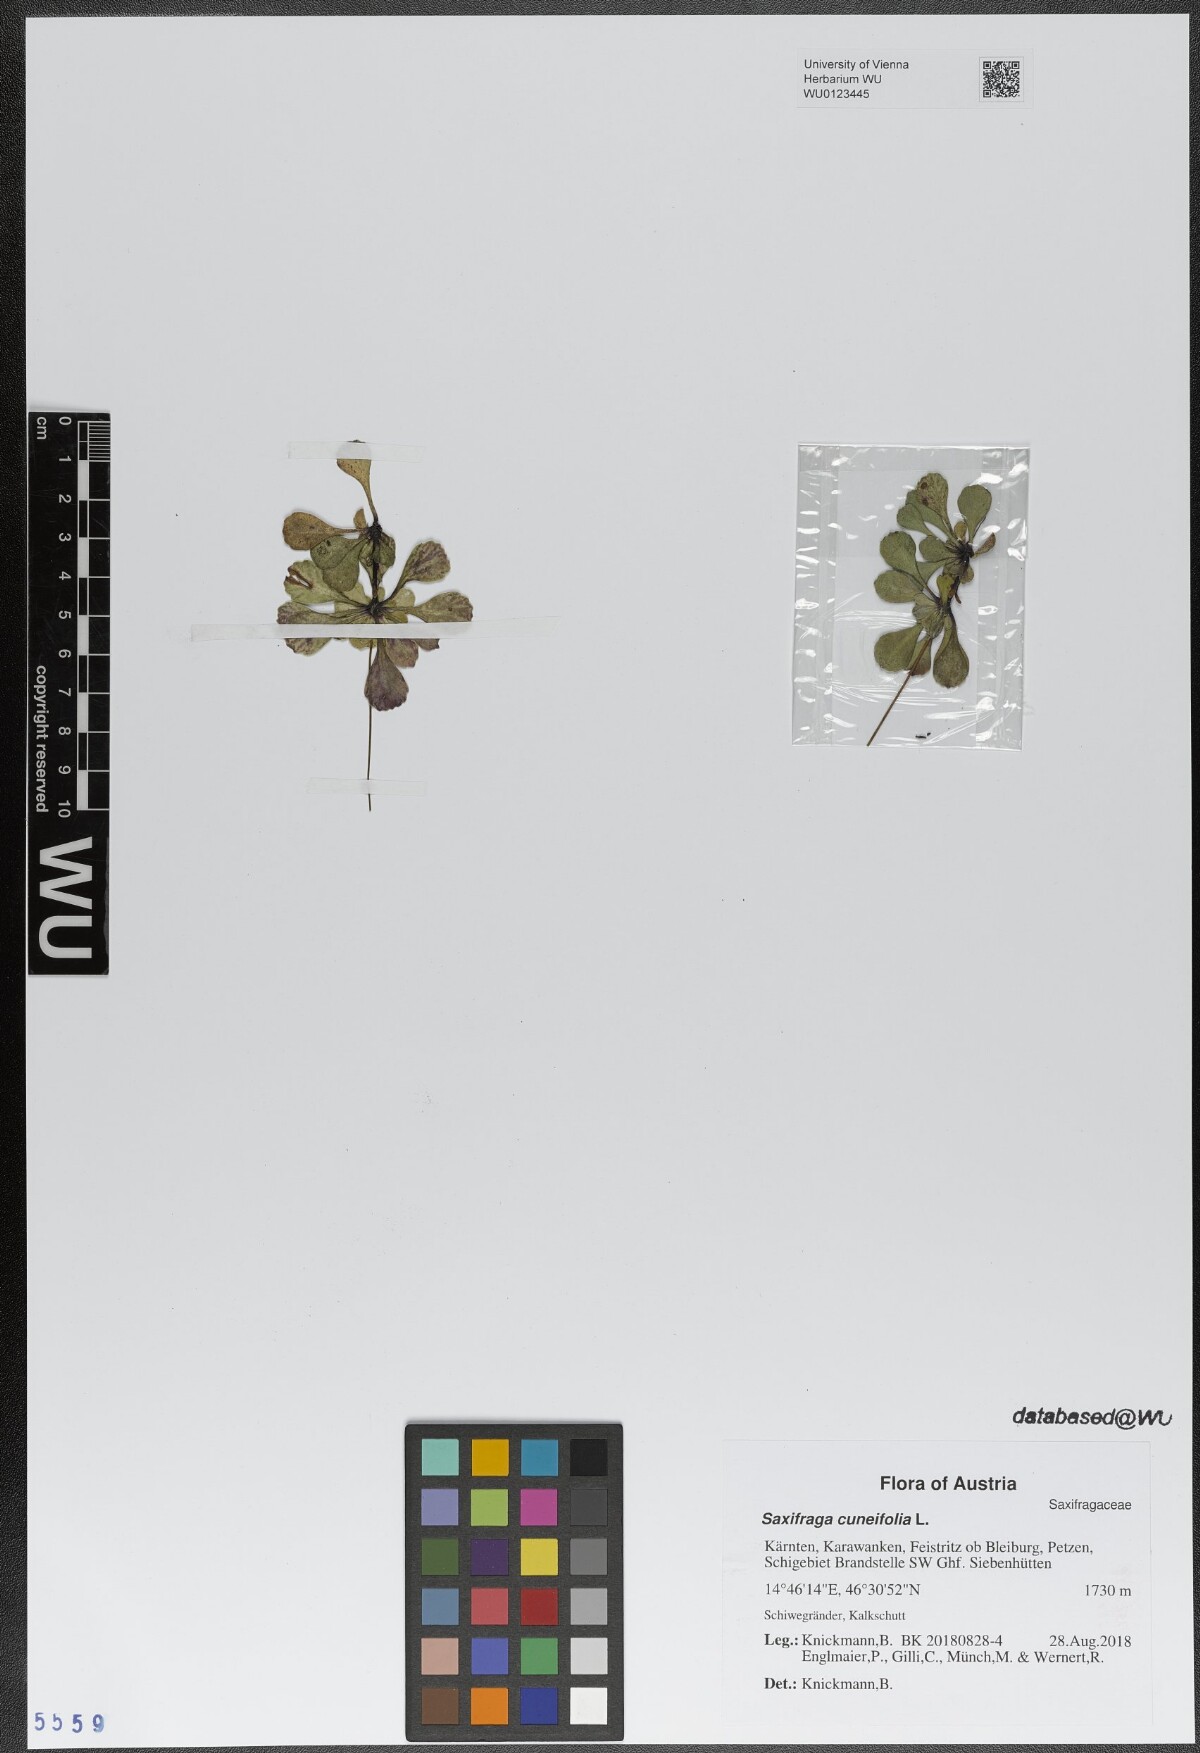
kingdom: Plantae
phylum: Tracheophyta
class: Magnoliopsida
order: Saxifragales
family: Saxifragaceae
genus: Saxifraga
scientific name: Saxifraga cuneifolia
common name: Lesser londonpride
